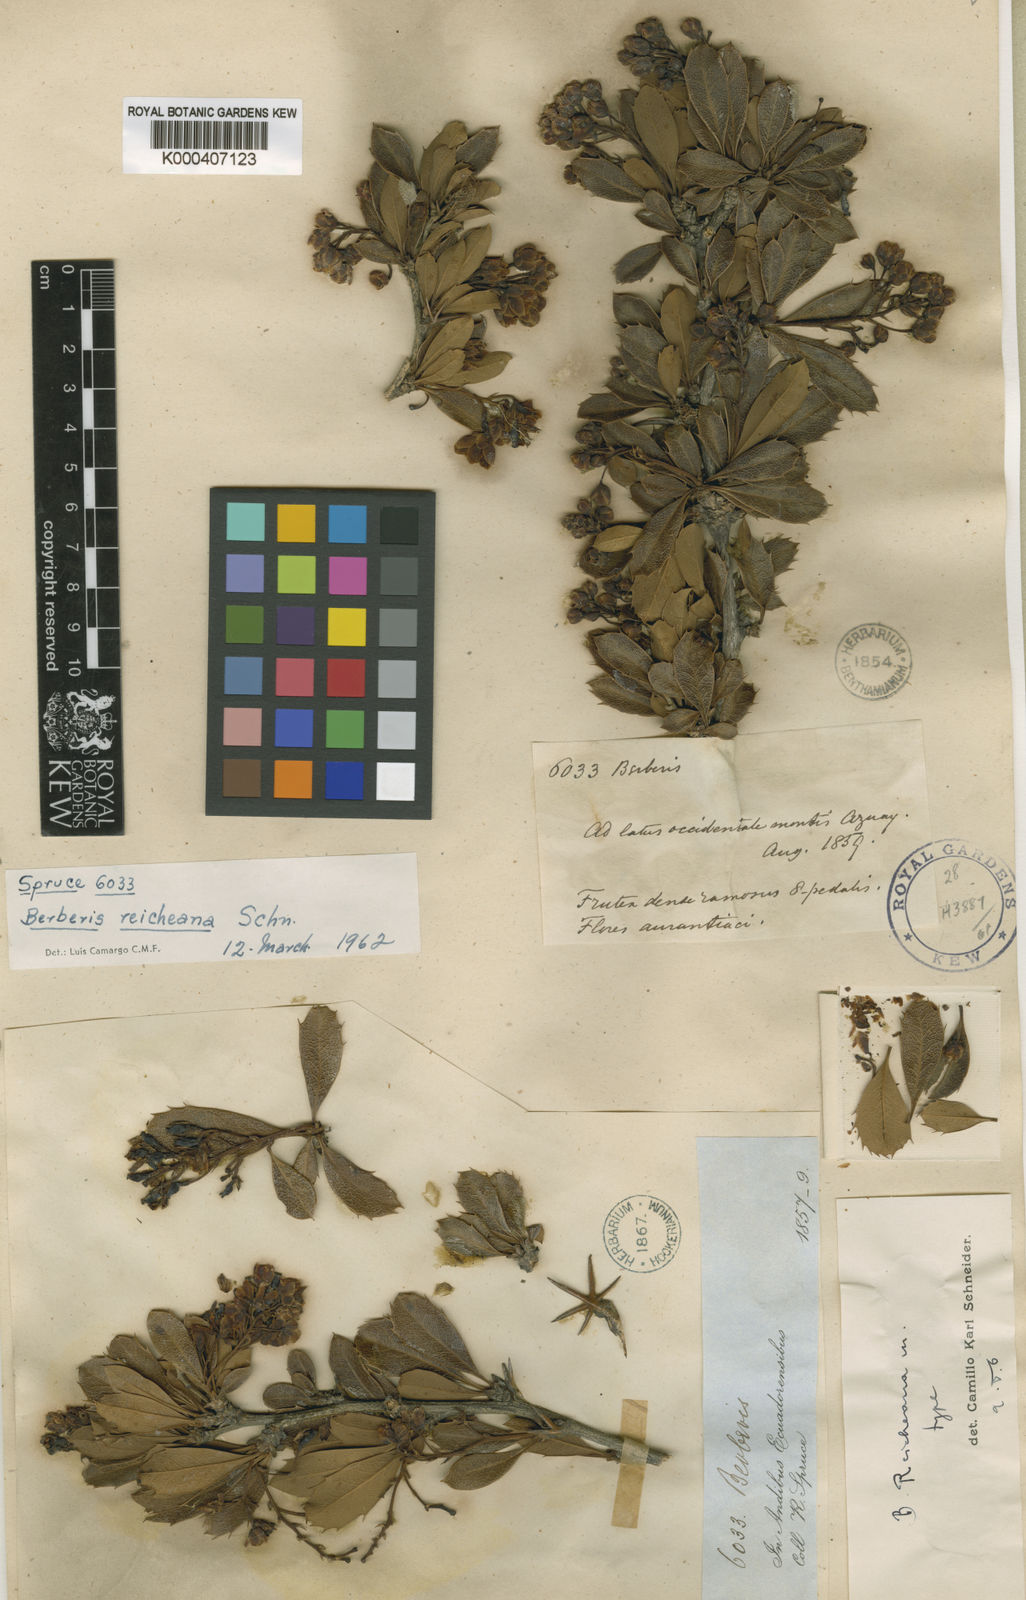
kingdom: Plantae
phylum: Tracheophyta
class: Magnoliopsida
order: Ranunculales
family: Berberidaceae
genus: Berberis
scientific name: Berberis reicheana
